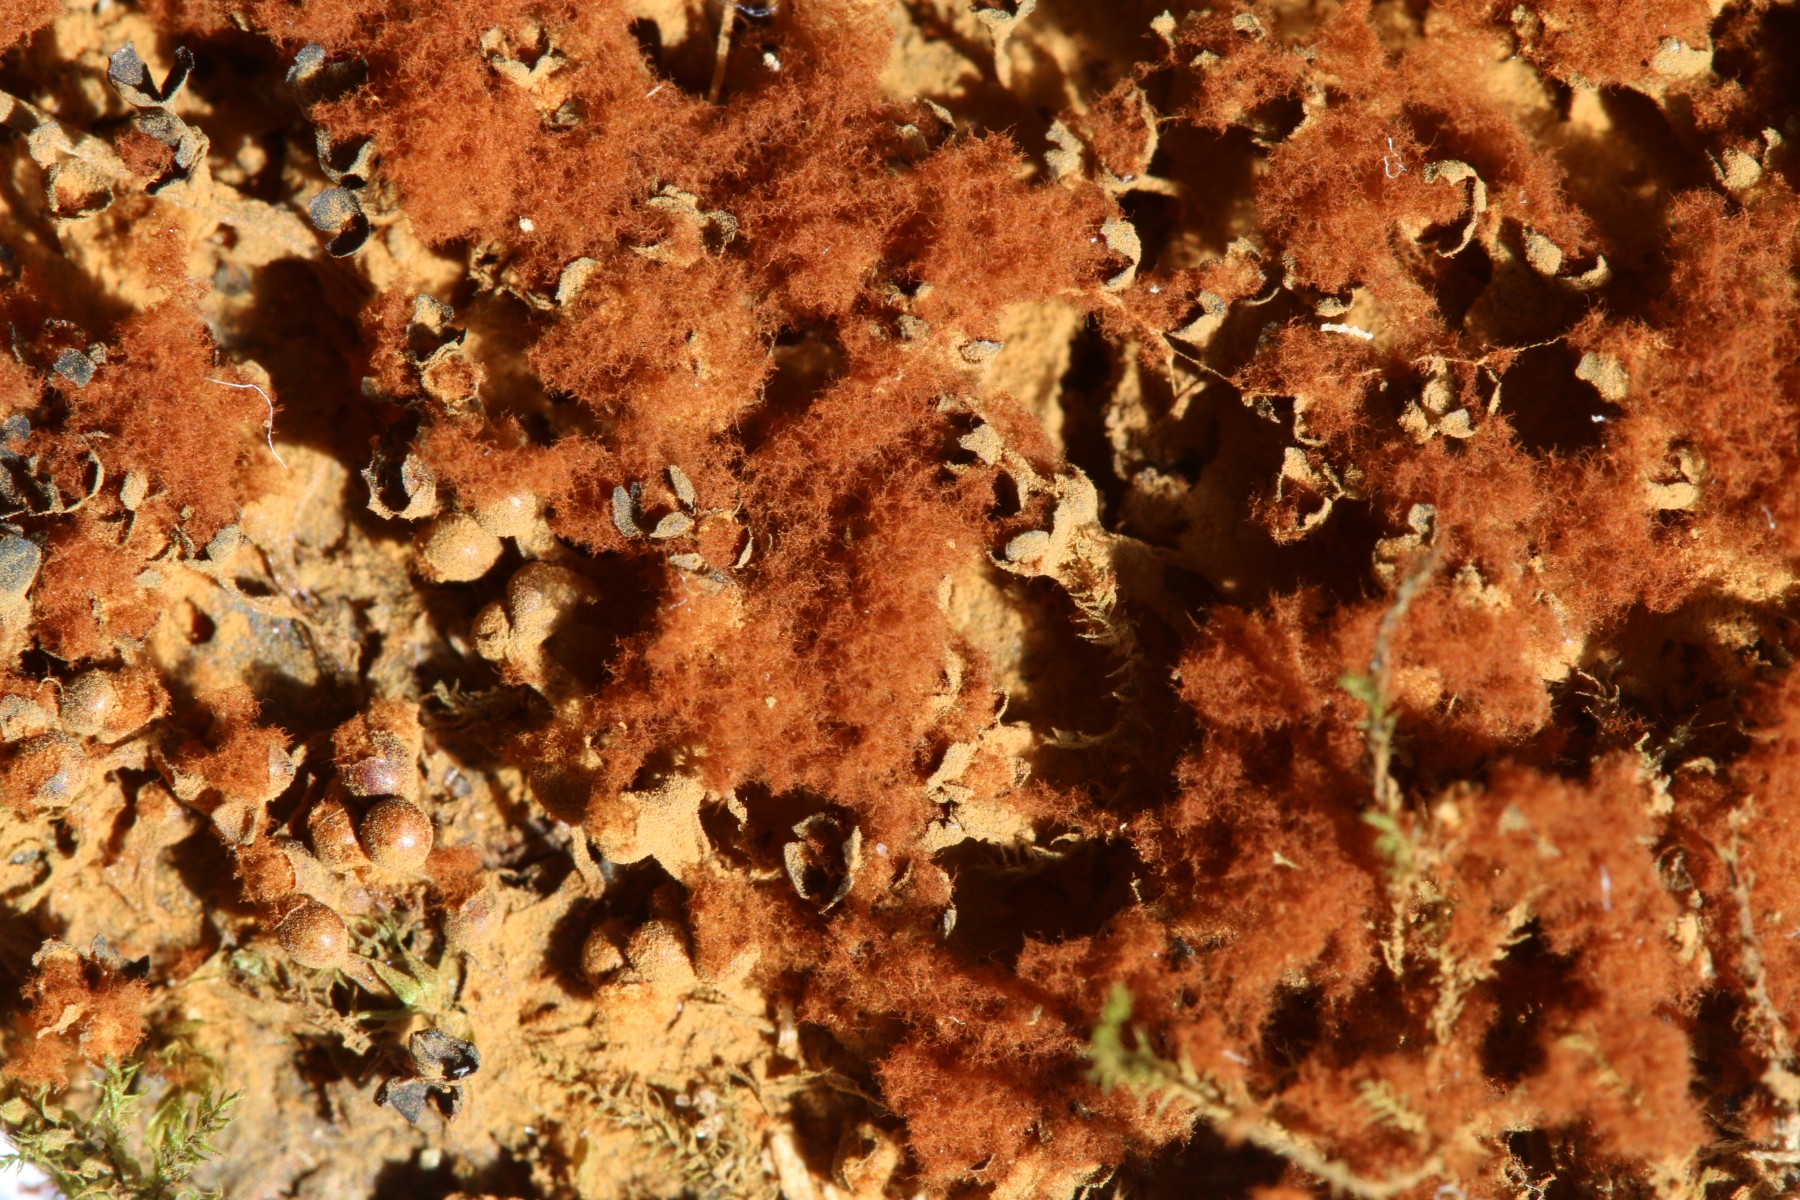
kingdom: Protozoa
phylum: Mycetozoa
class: Myxomycetes
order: Trichiales
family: Trichiaceae
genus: Metatrichia
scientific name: Metatrichia floriformis
